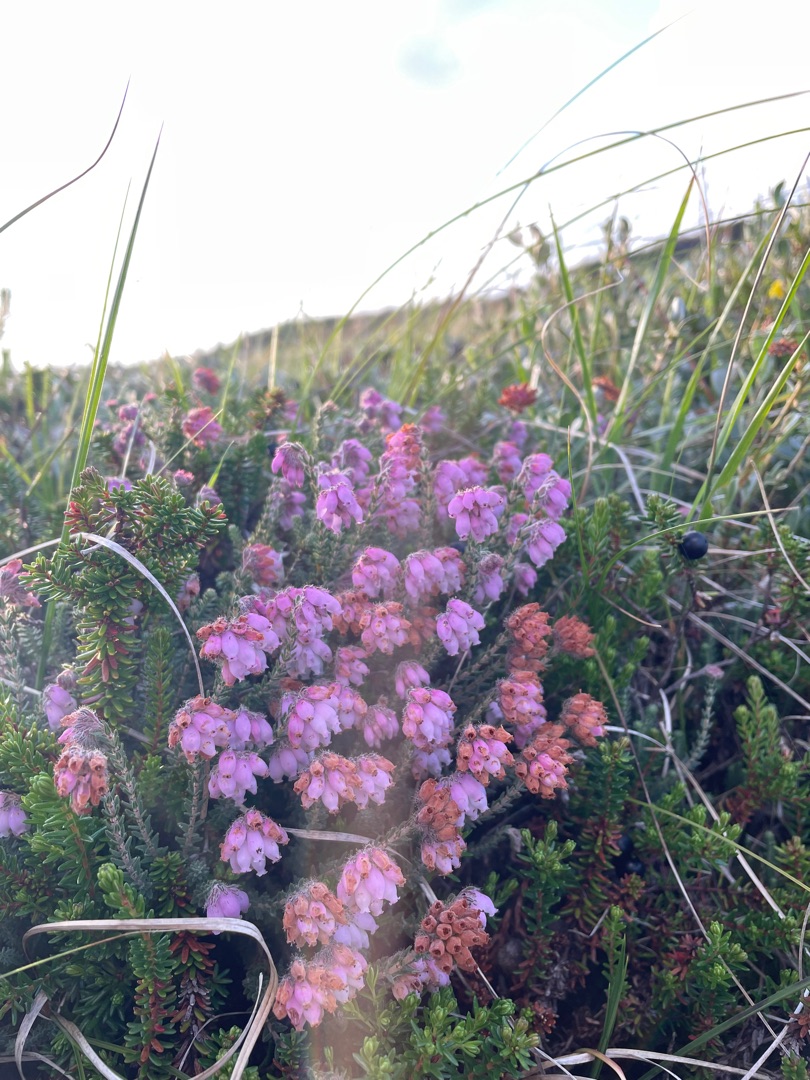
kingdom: Plantae
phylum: Tracheophyta
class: Magnoliopsida
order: Ericales
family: Ericaceae
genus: Erica
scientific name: Erica tetralix
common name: Klokkelyng
